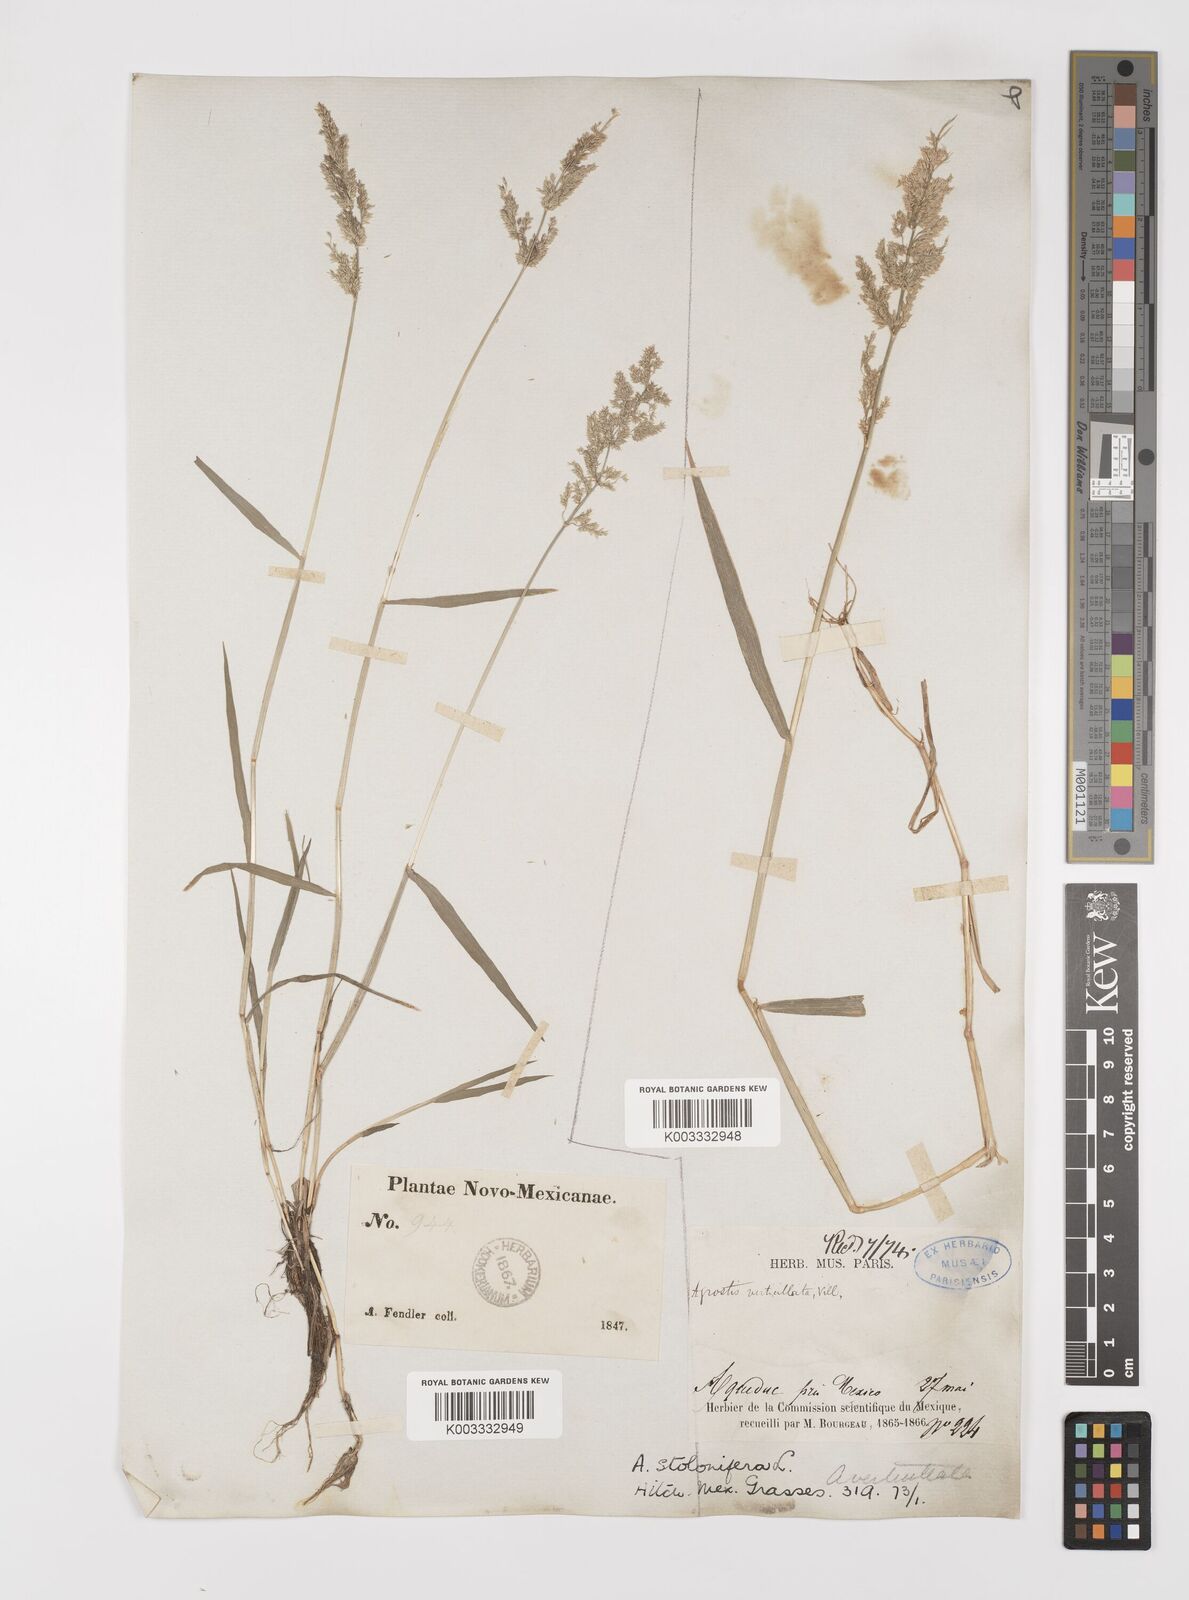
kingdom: Plantae
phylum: Tracheophyta
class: Liliopsida
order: Poales
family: Poaceae
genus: Polypogon
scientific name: Polypogon viridis
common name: Water bent
